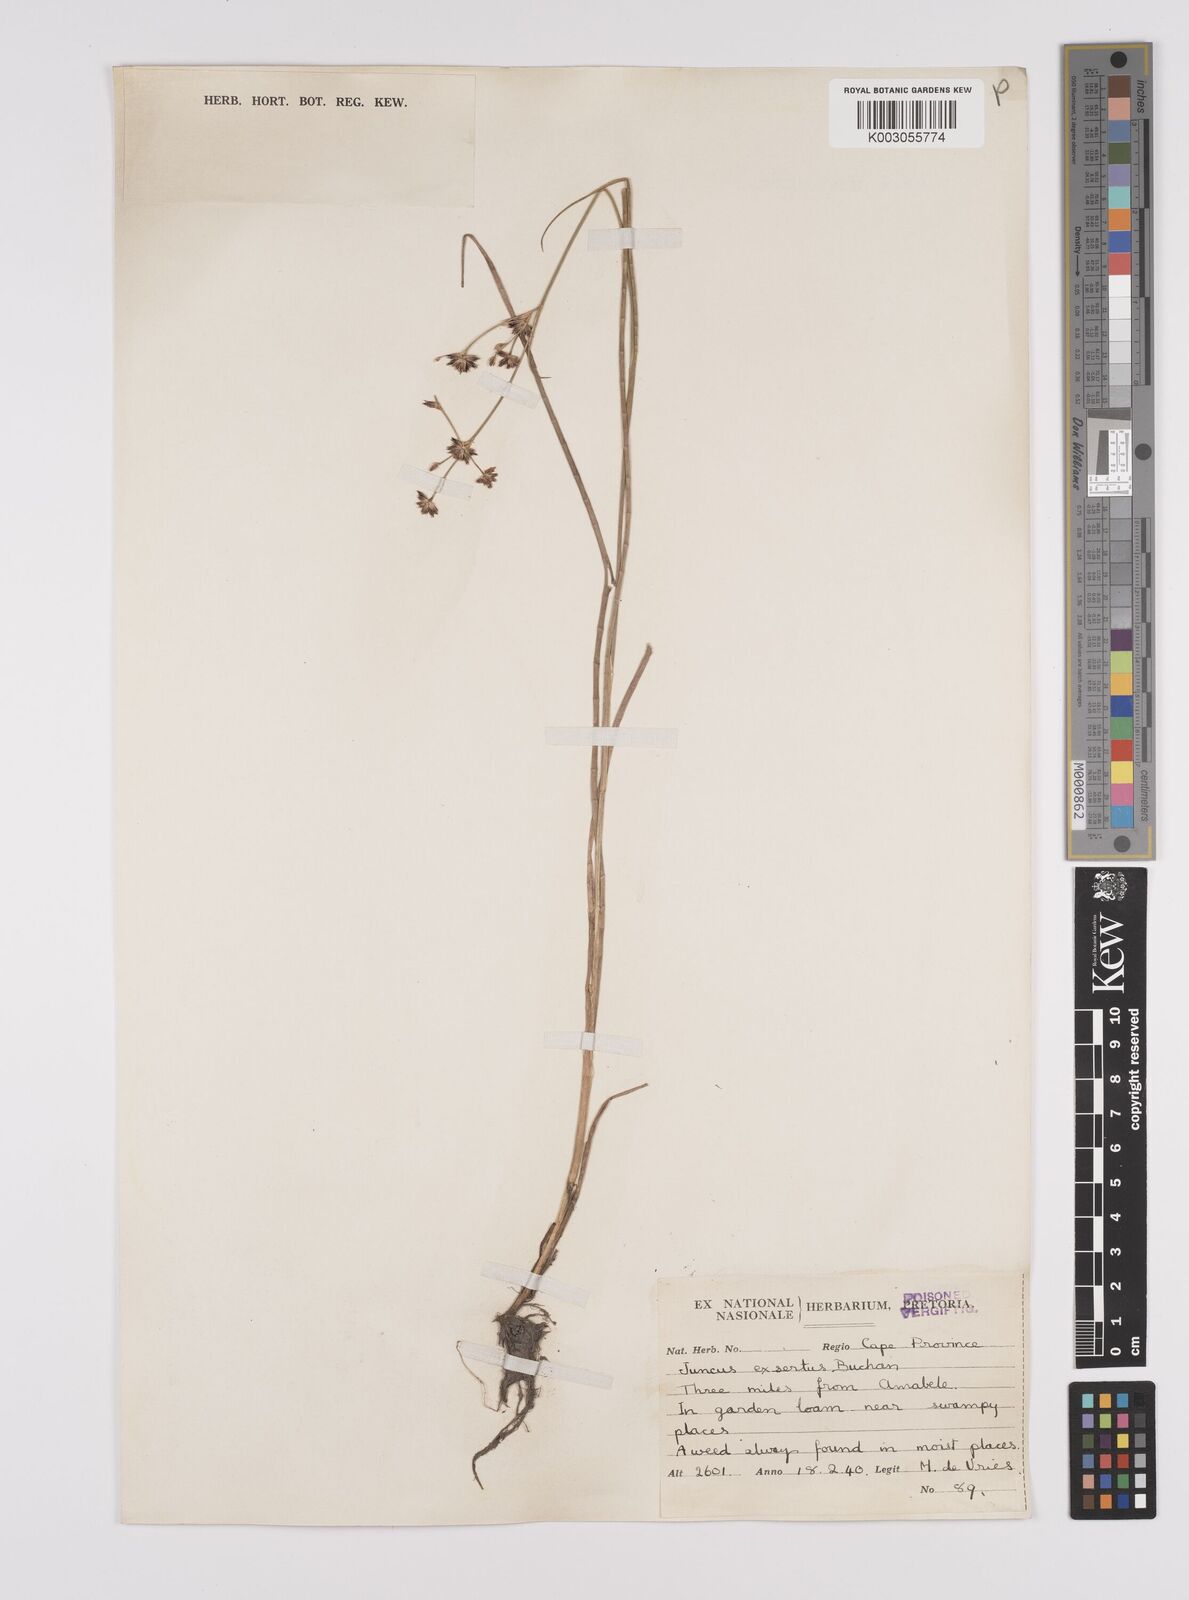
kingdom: Plantae
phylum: Tracheophyta
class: Liliopsida
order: Poales
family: Juncaceae
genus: Juncus
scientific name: Juncus exsertus
